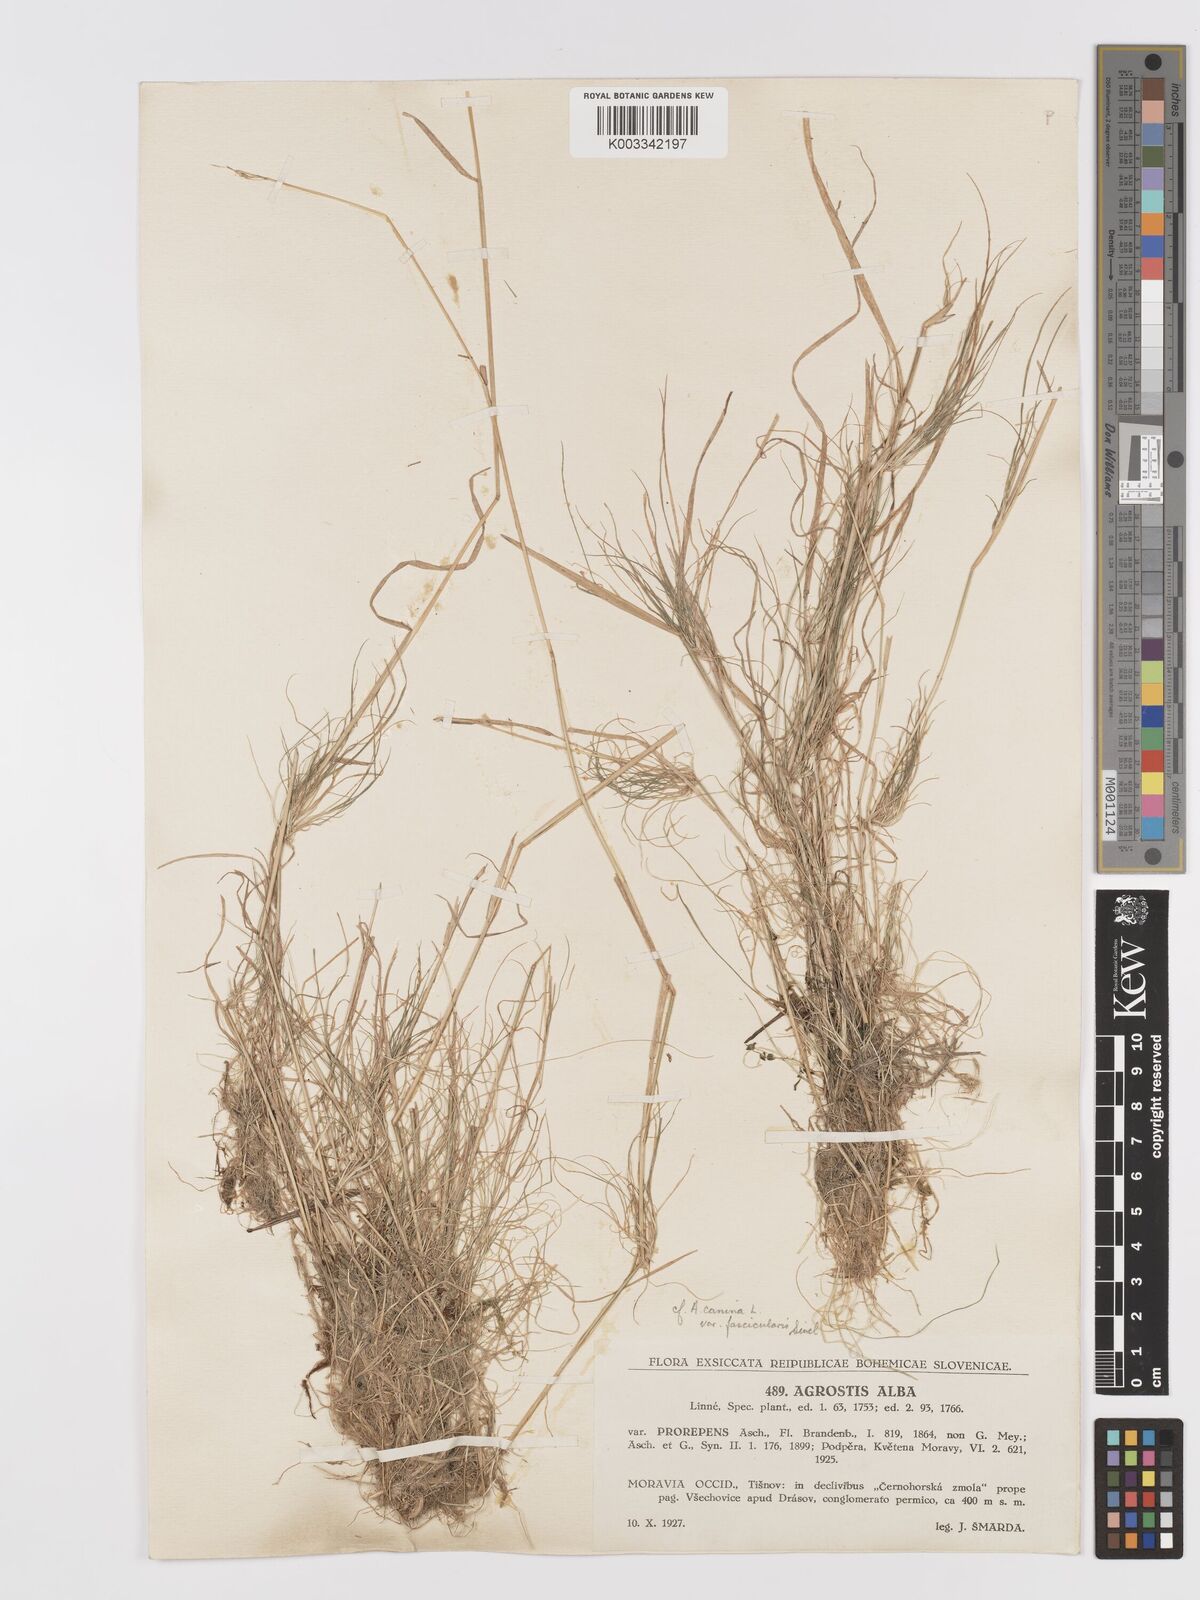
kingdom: Plantae
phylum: Tracheophyta
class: Liliopsida
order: Poales
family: Poaceae
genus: Agrostis
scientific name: Agrostis stolonifera
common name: Creeping bentgrass
